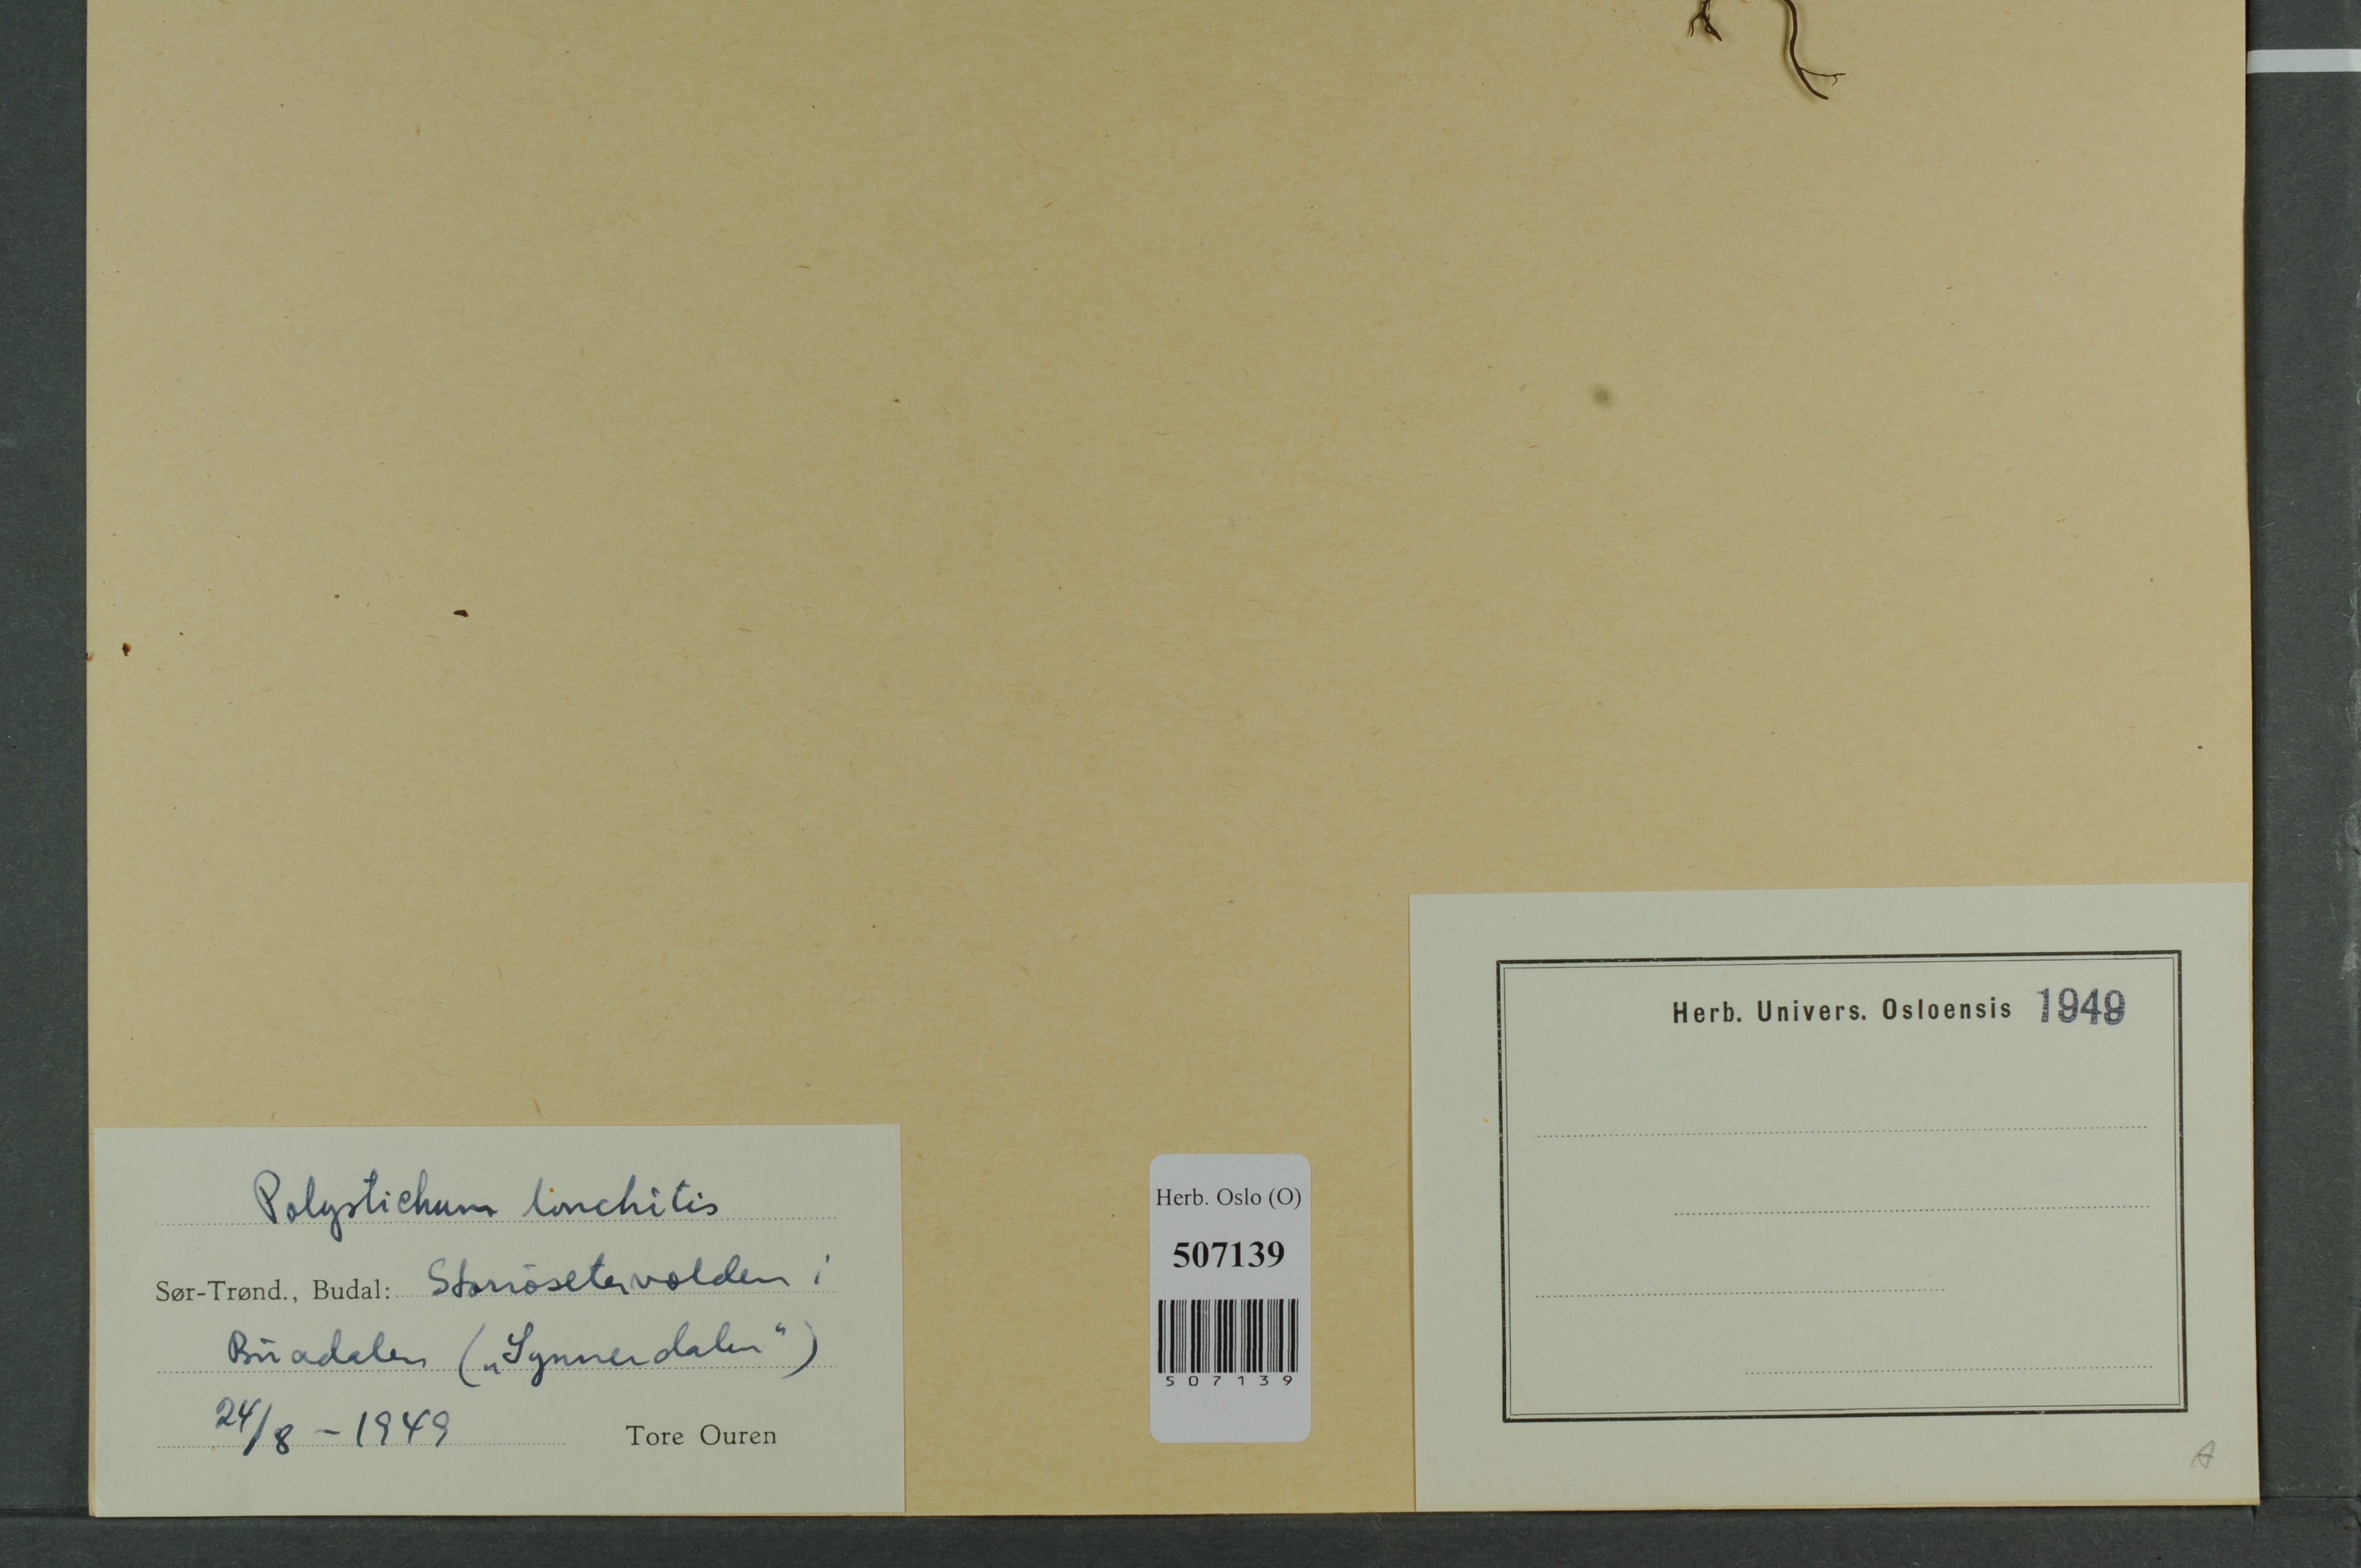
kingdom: Plantae
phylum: Tracheophyta
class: Polypodiopsida
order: Polypodiales
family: Dryopteridaceae
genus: Polystichum
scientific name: Polystichum lonchitis
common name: Holly fern
